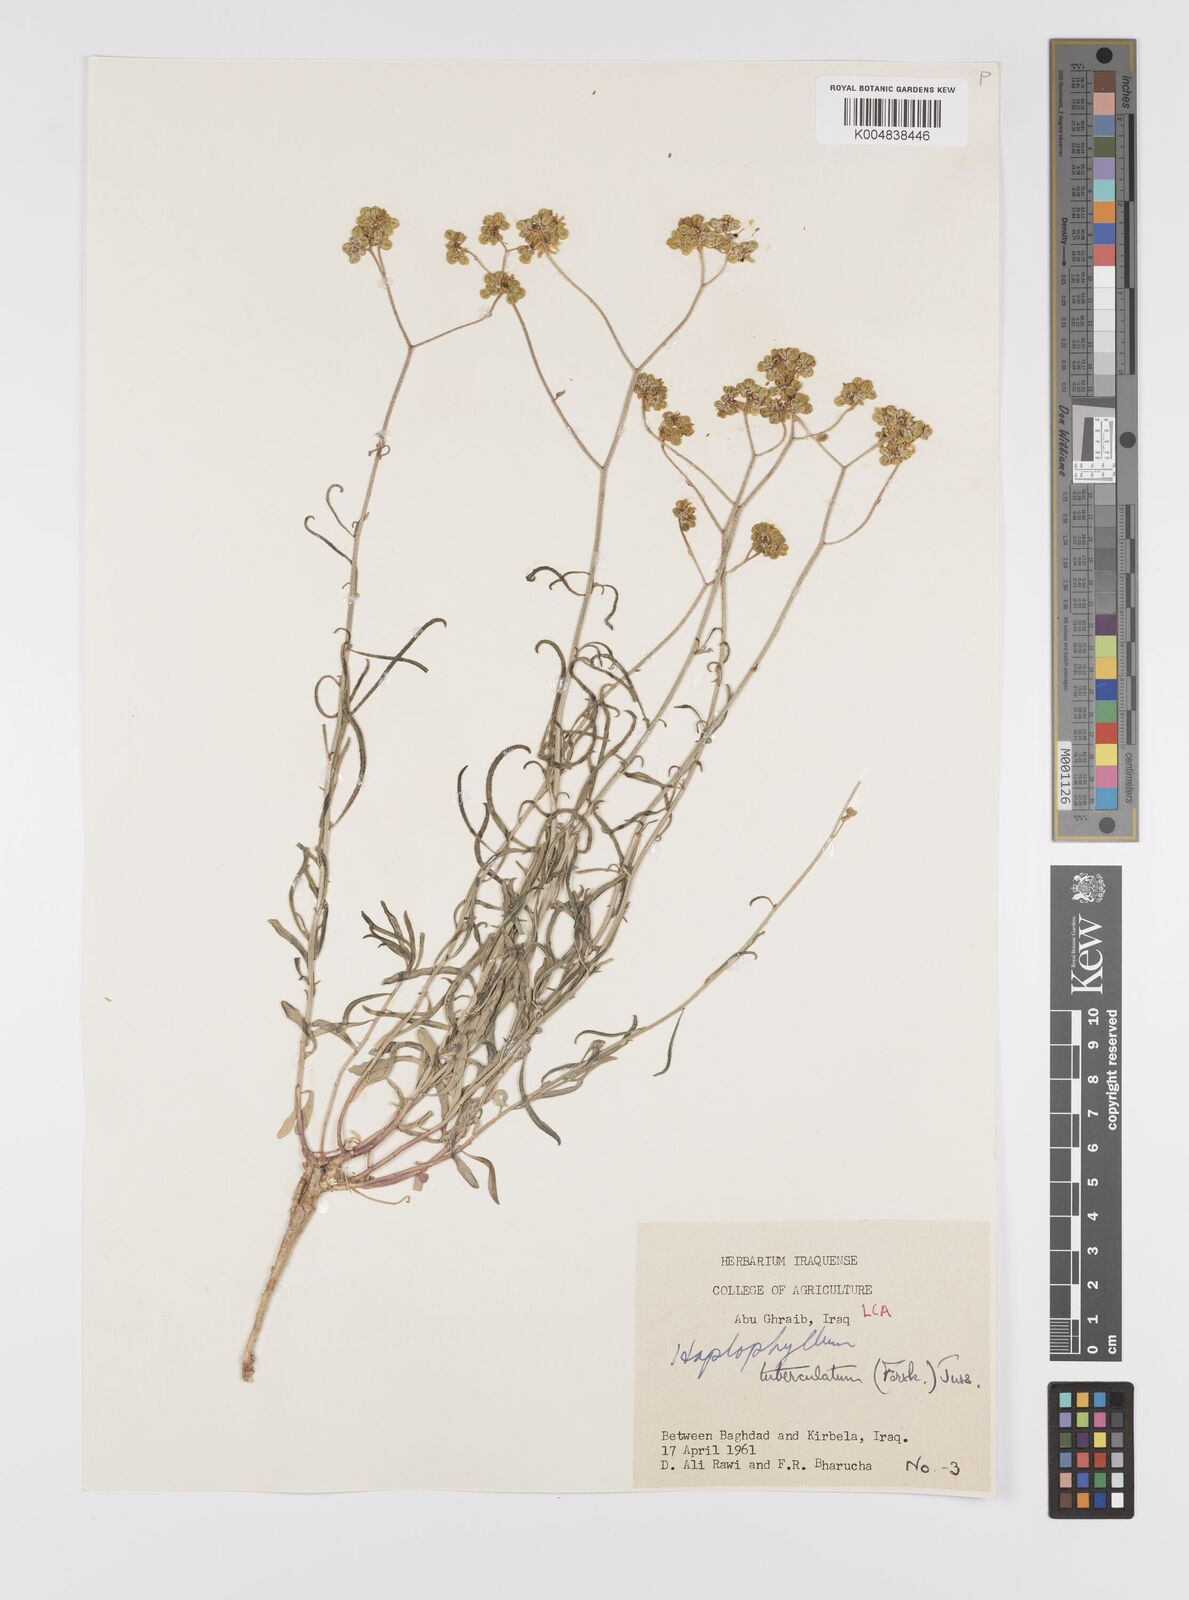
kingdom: Plantae
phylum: Tracheophyta
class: Magnoliopsida
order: Sapindales
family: Rutaceae
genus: Haplophyllum
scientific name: Haplophyllum tuberculatum
